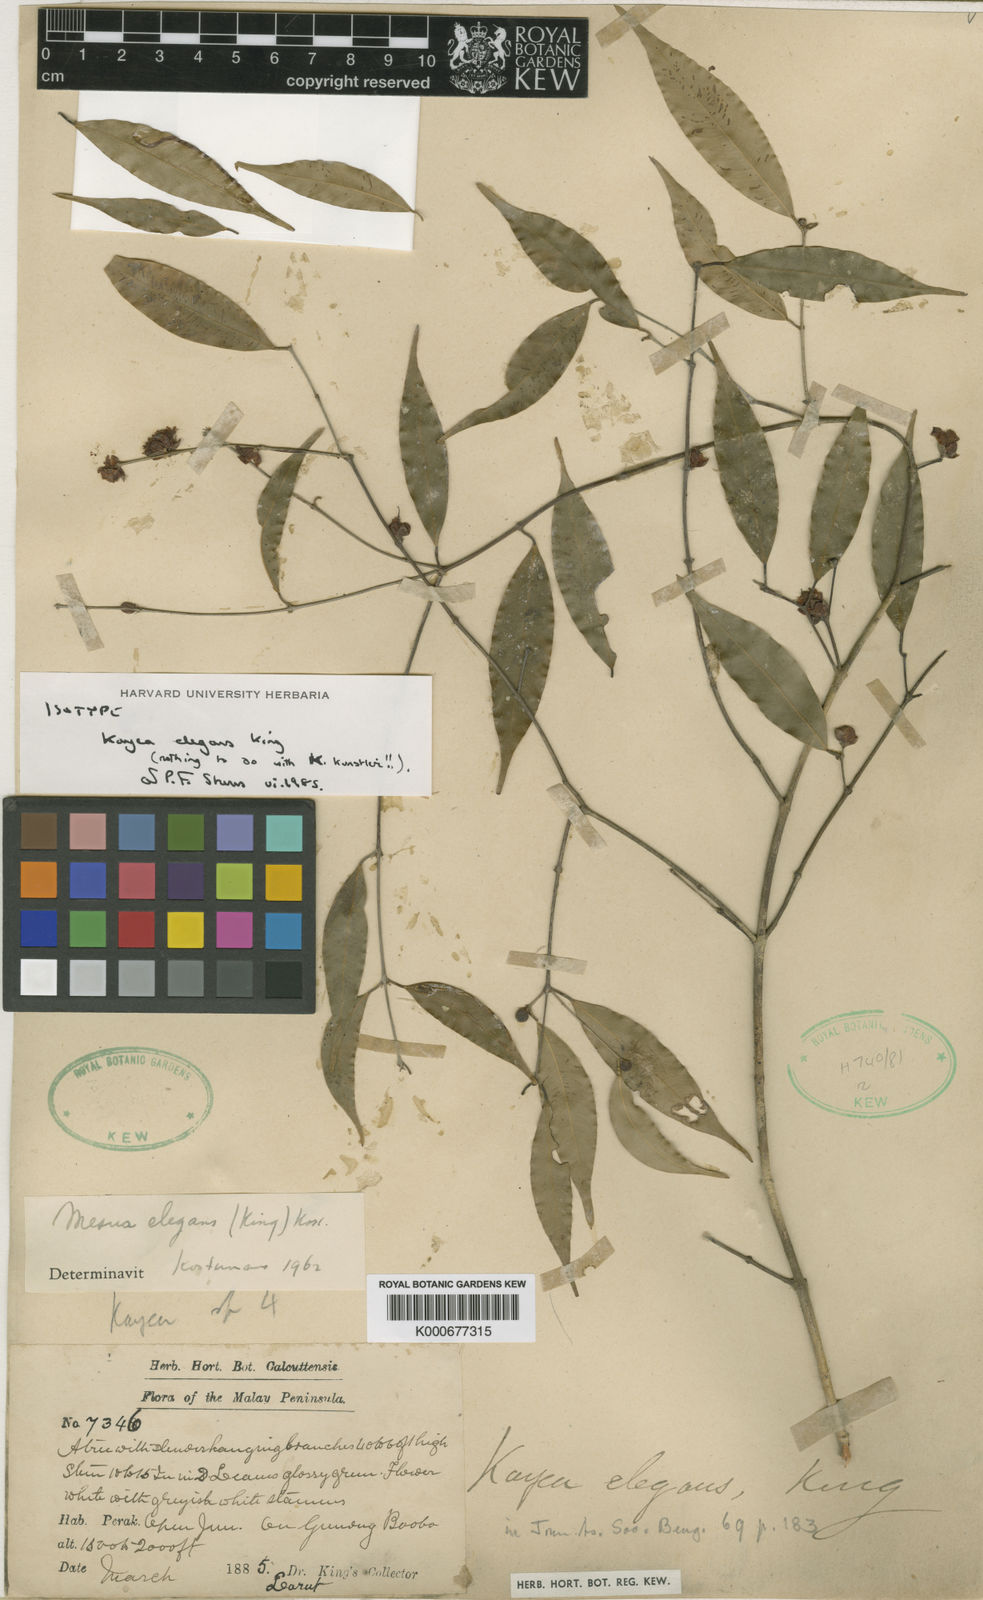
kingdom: Plantae
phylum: Tracheophyta
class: Magnoliopsida
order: Malpighiales
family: Calophyllaceae
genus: Kayea
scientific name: Kayea elegans
